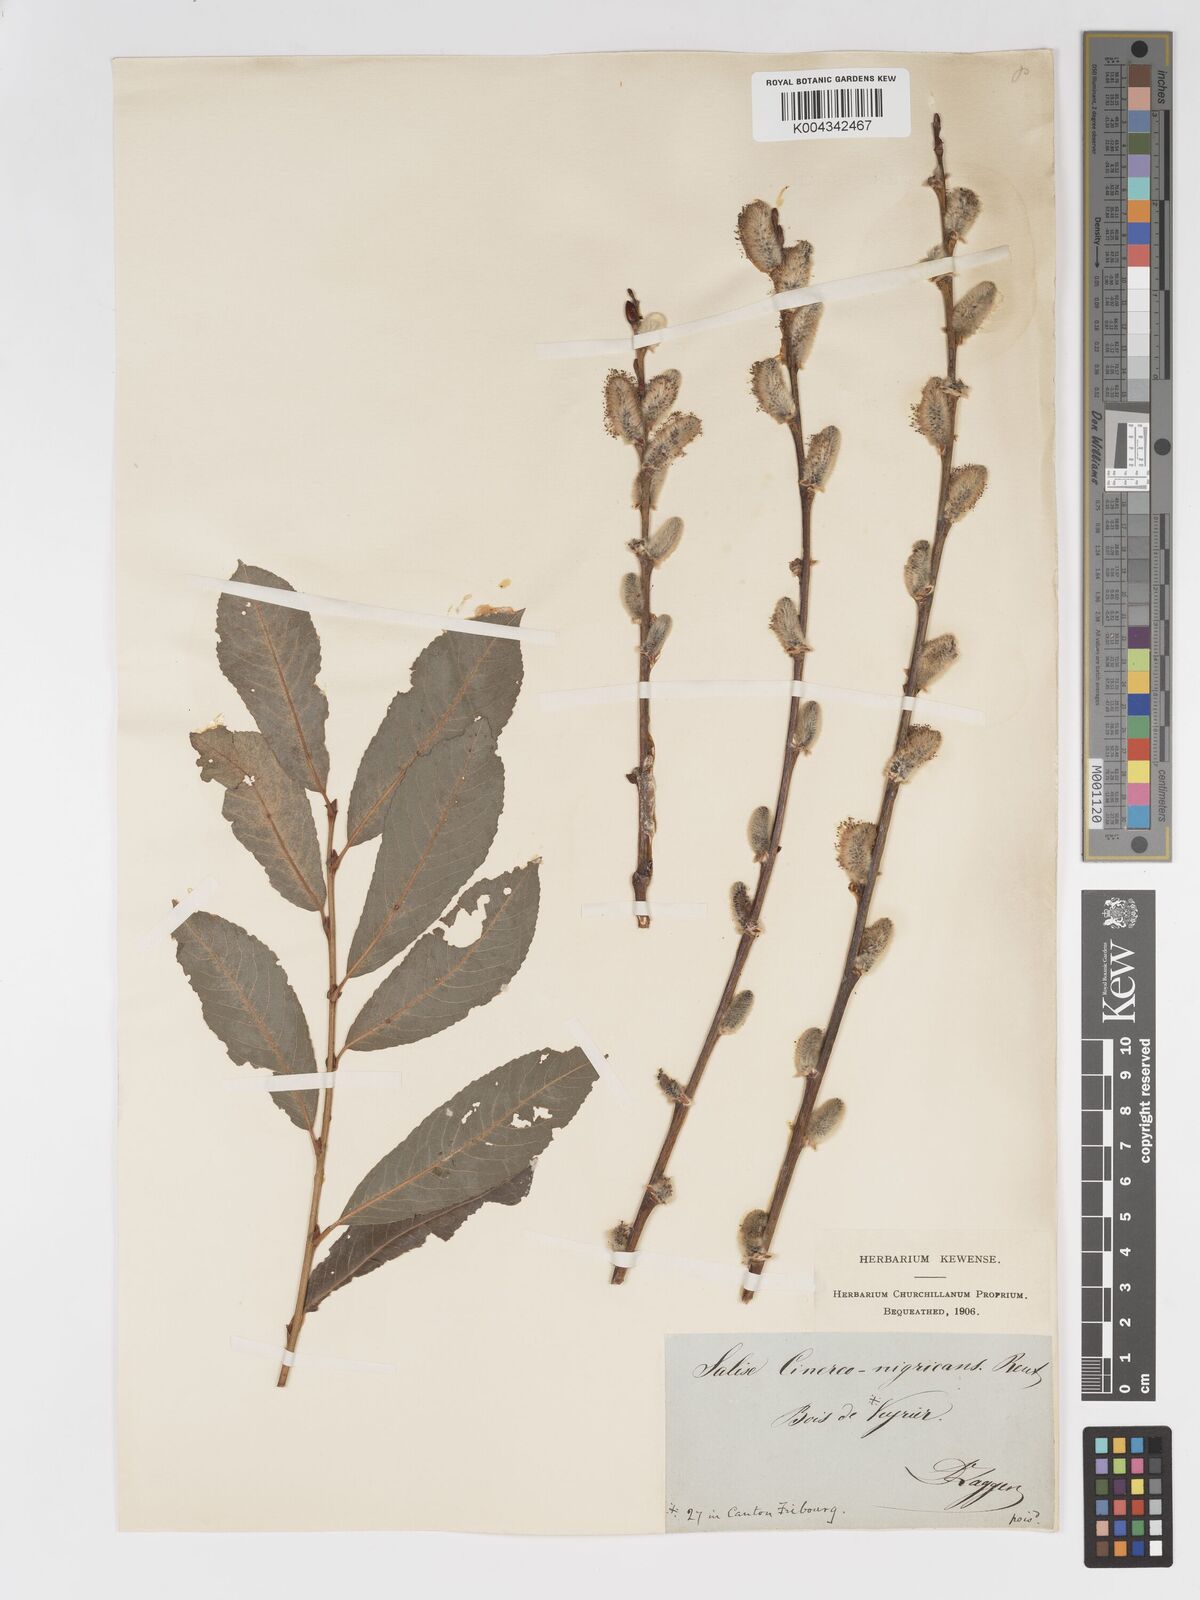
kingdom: Plantae
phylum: Tracheophyta
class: Magnoliopsida
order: Malpighiales
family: Salicaceae
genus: Salix
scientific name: Salix
